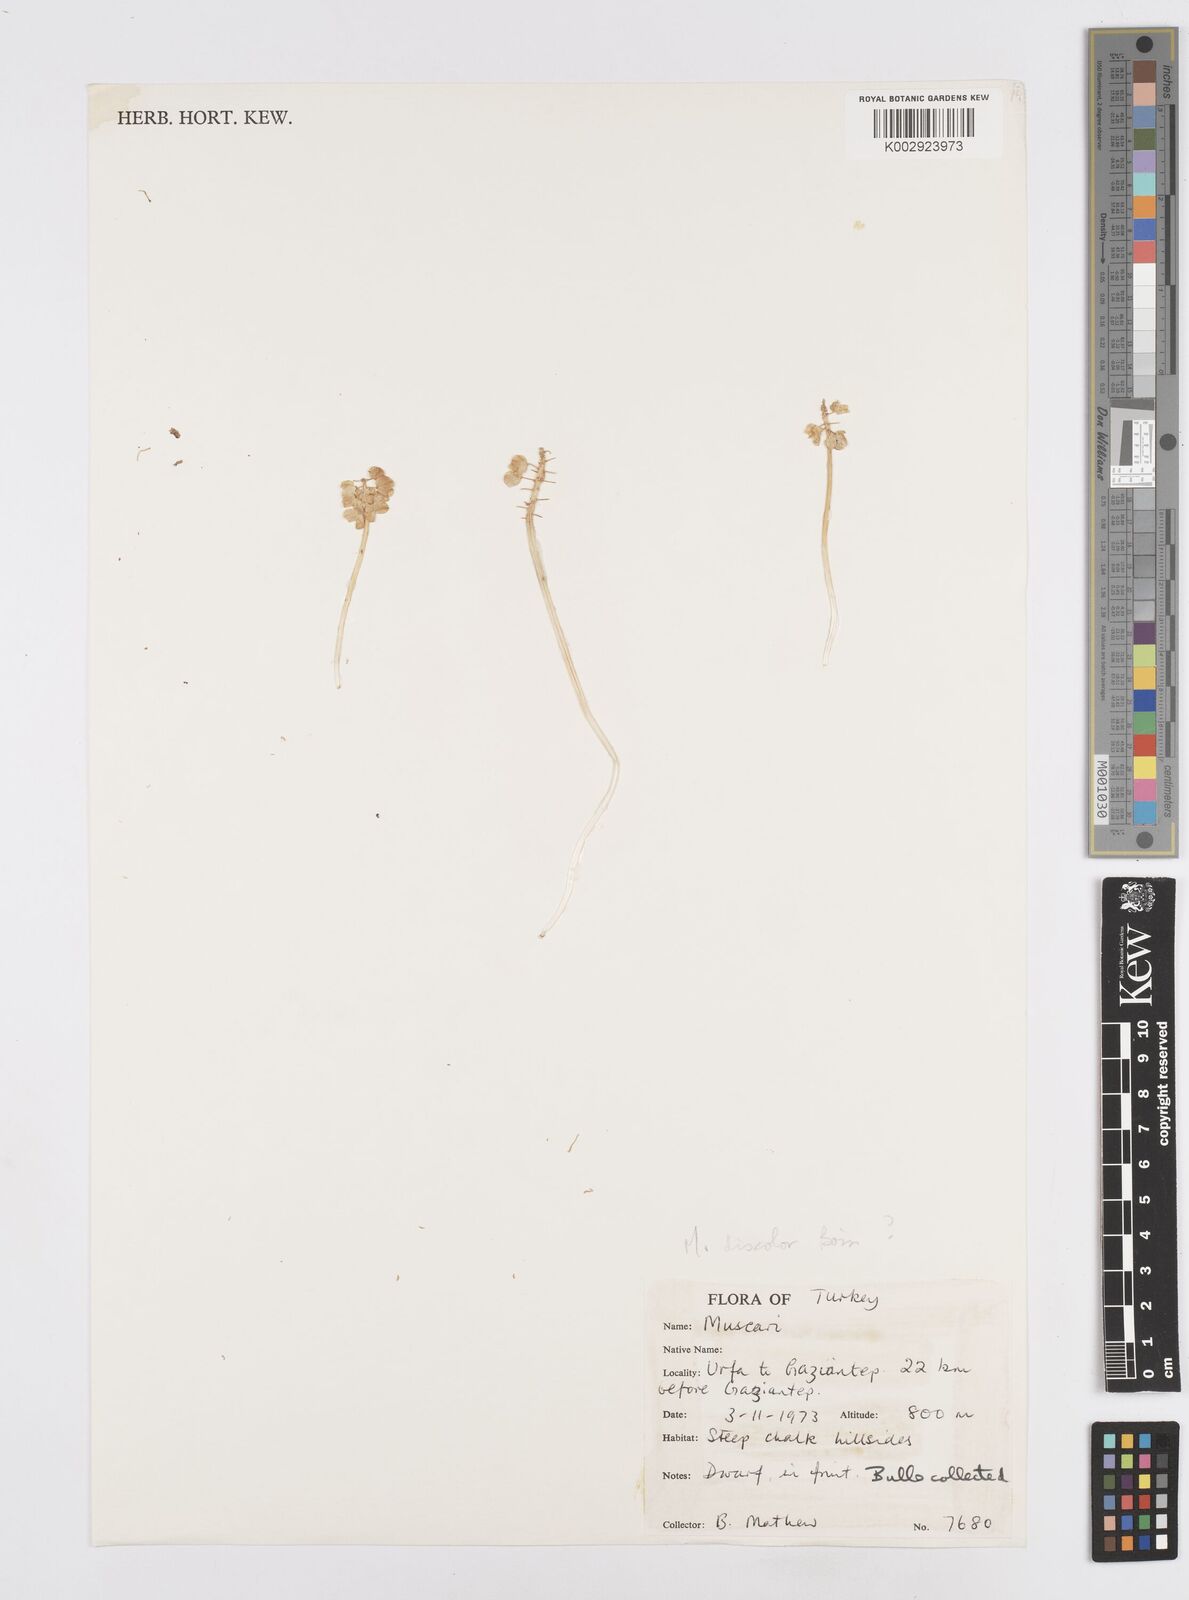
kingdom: Plantae
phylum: Tracheophyta
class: Liliopsida
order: Asparagales
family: Asparagaceae
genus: Muscari
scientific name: Muscari discolor
